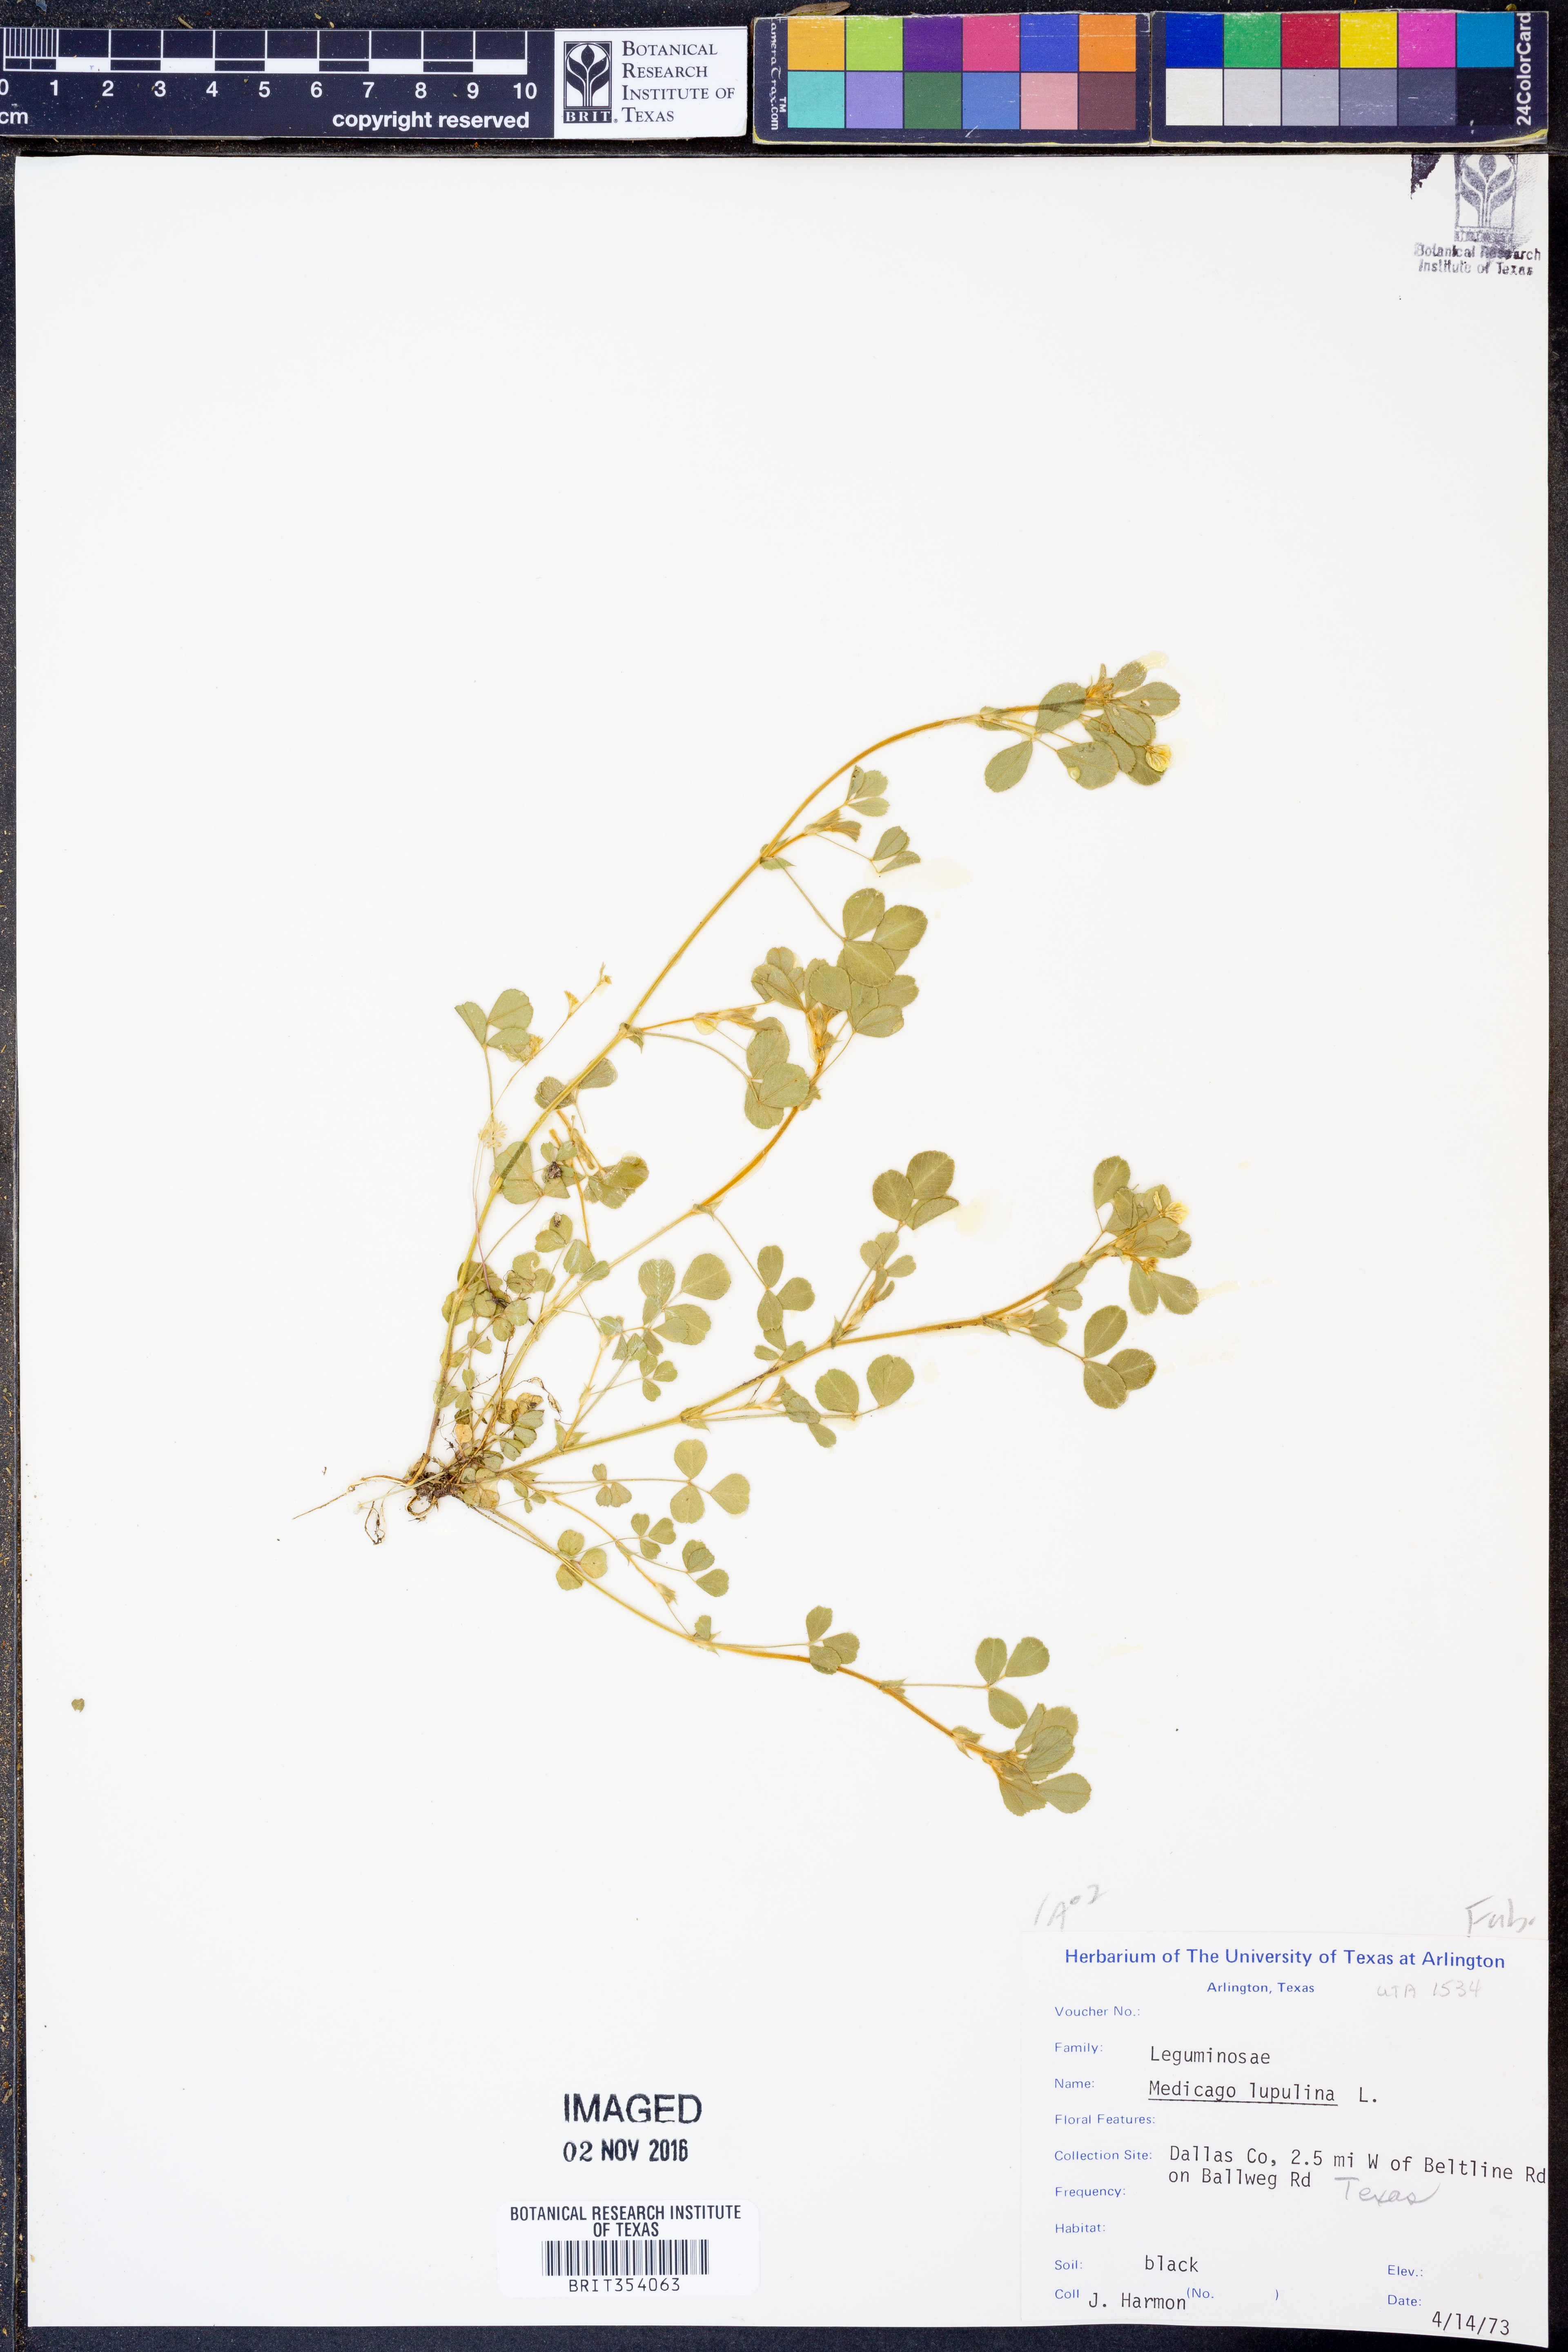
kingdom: Plantae
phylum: Tracheophyta
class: Magnoliopsida
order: Fabales
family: Fabaceae
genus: Medicago
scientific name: Medicago lupulina
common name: Black medick
